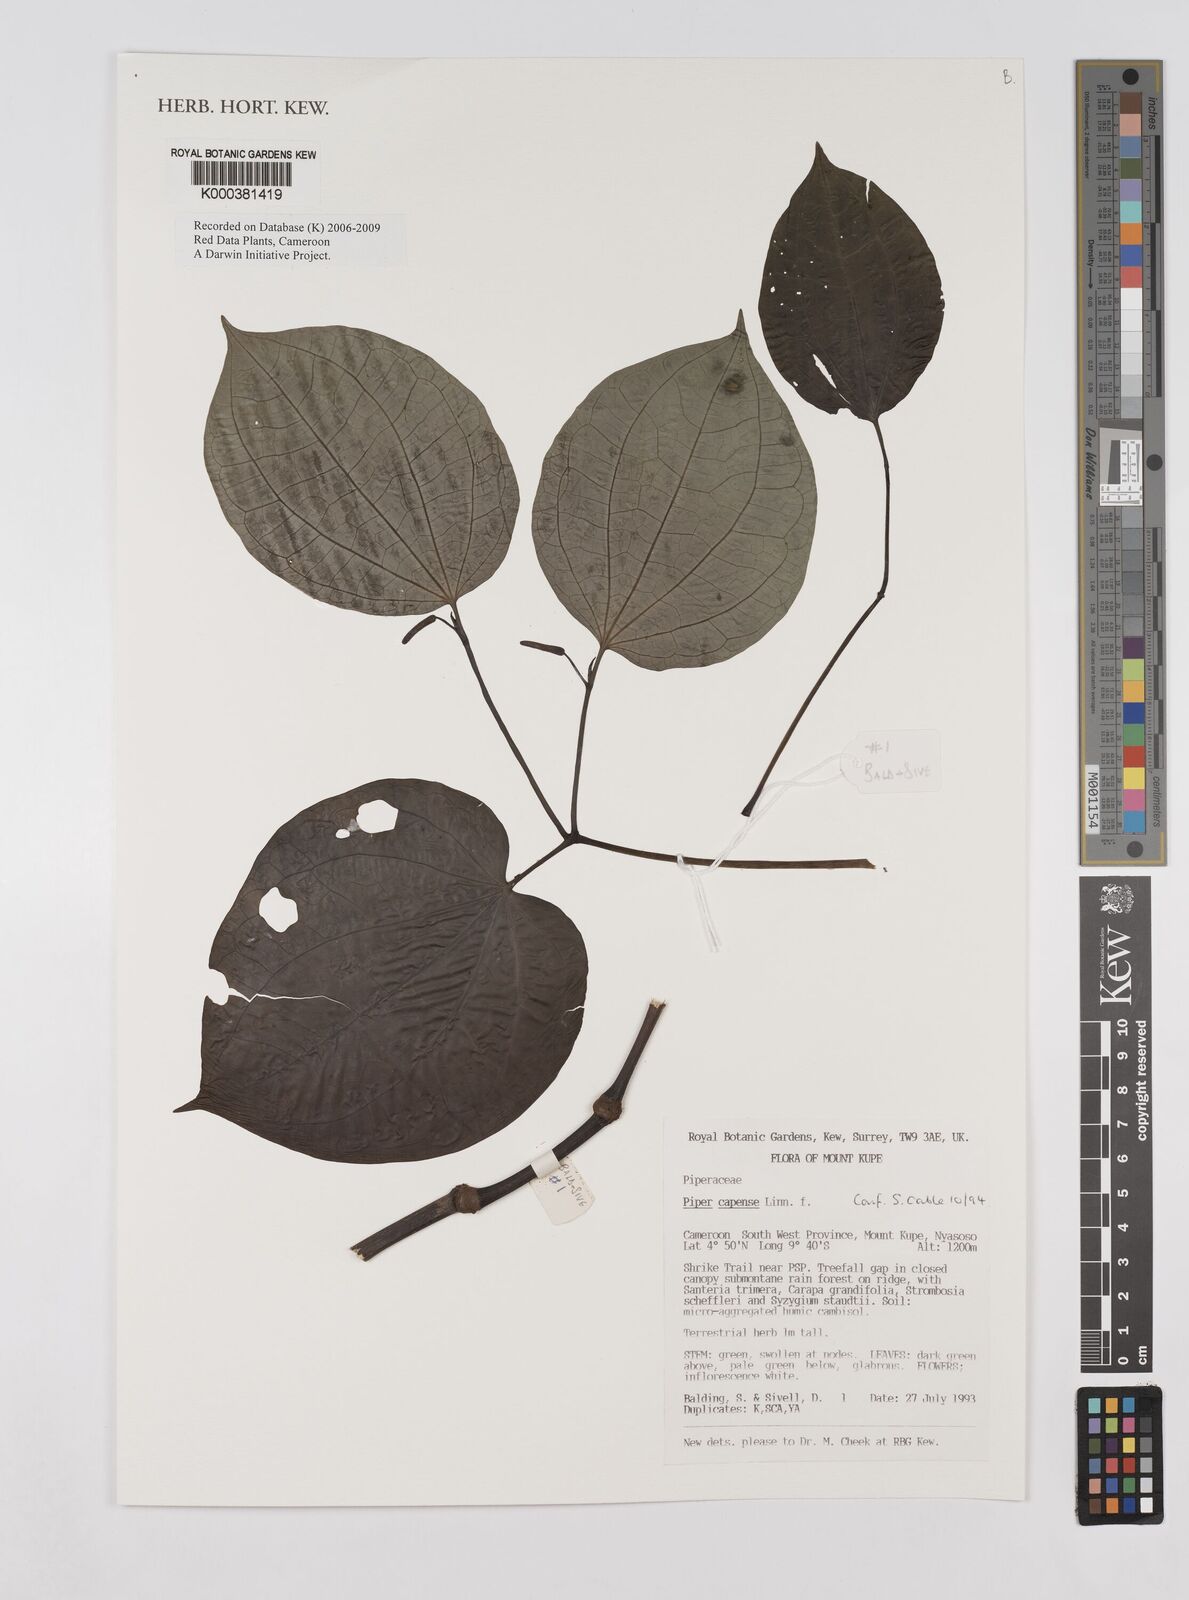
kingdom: Plantae
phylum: Tracheophyta
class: Magnoliopsida
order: Piperales
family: Piperaceae
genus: Piper
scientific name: Piper capense
